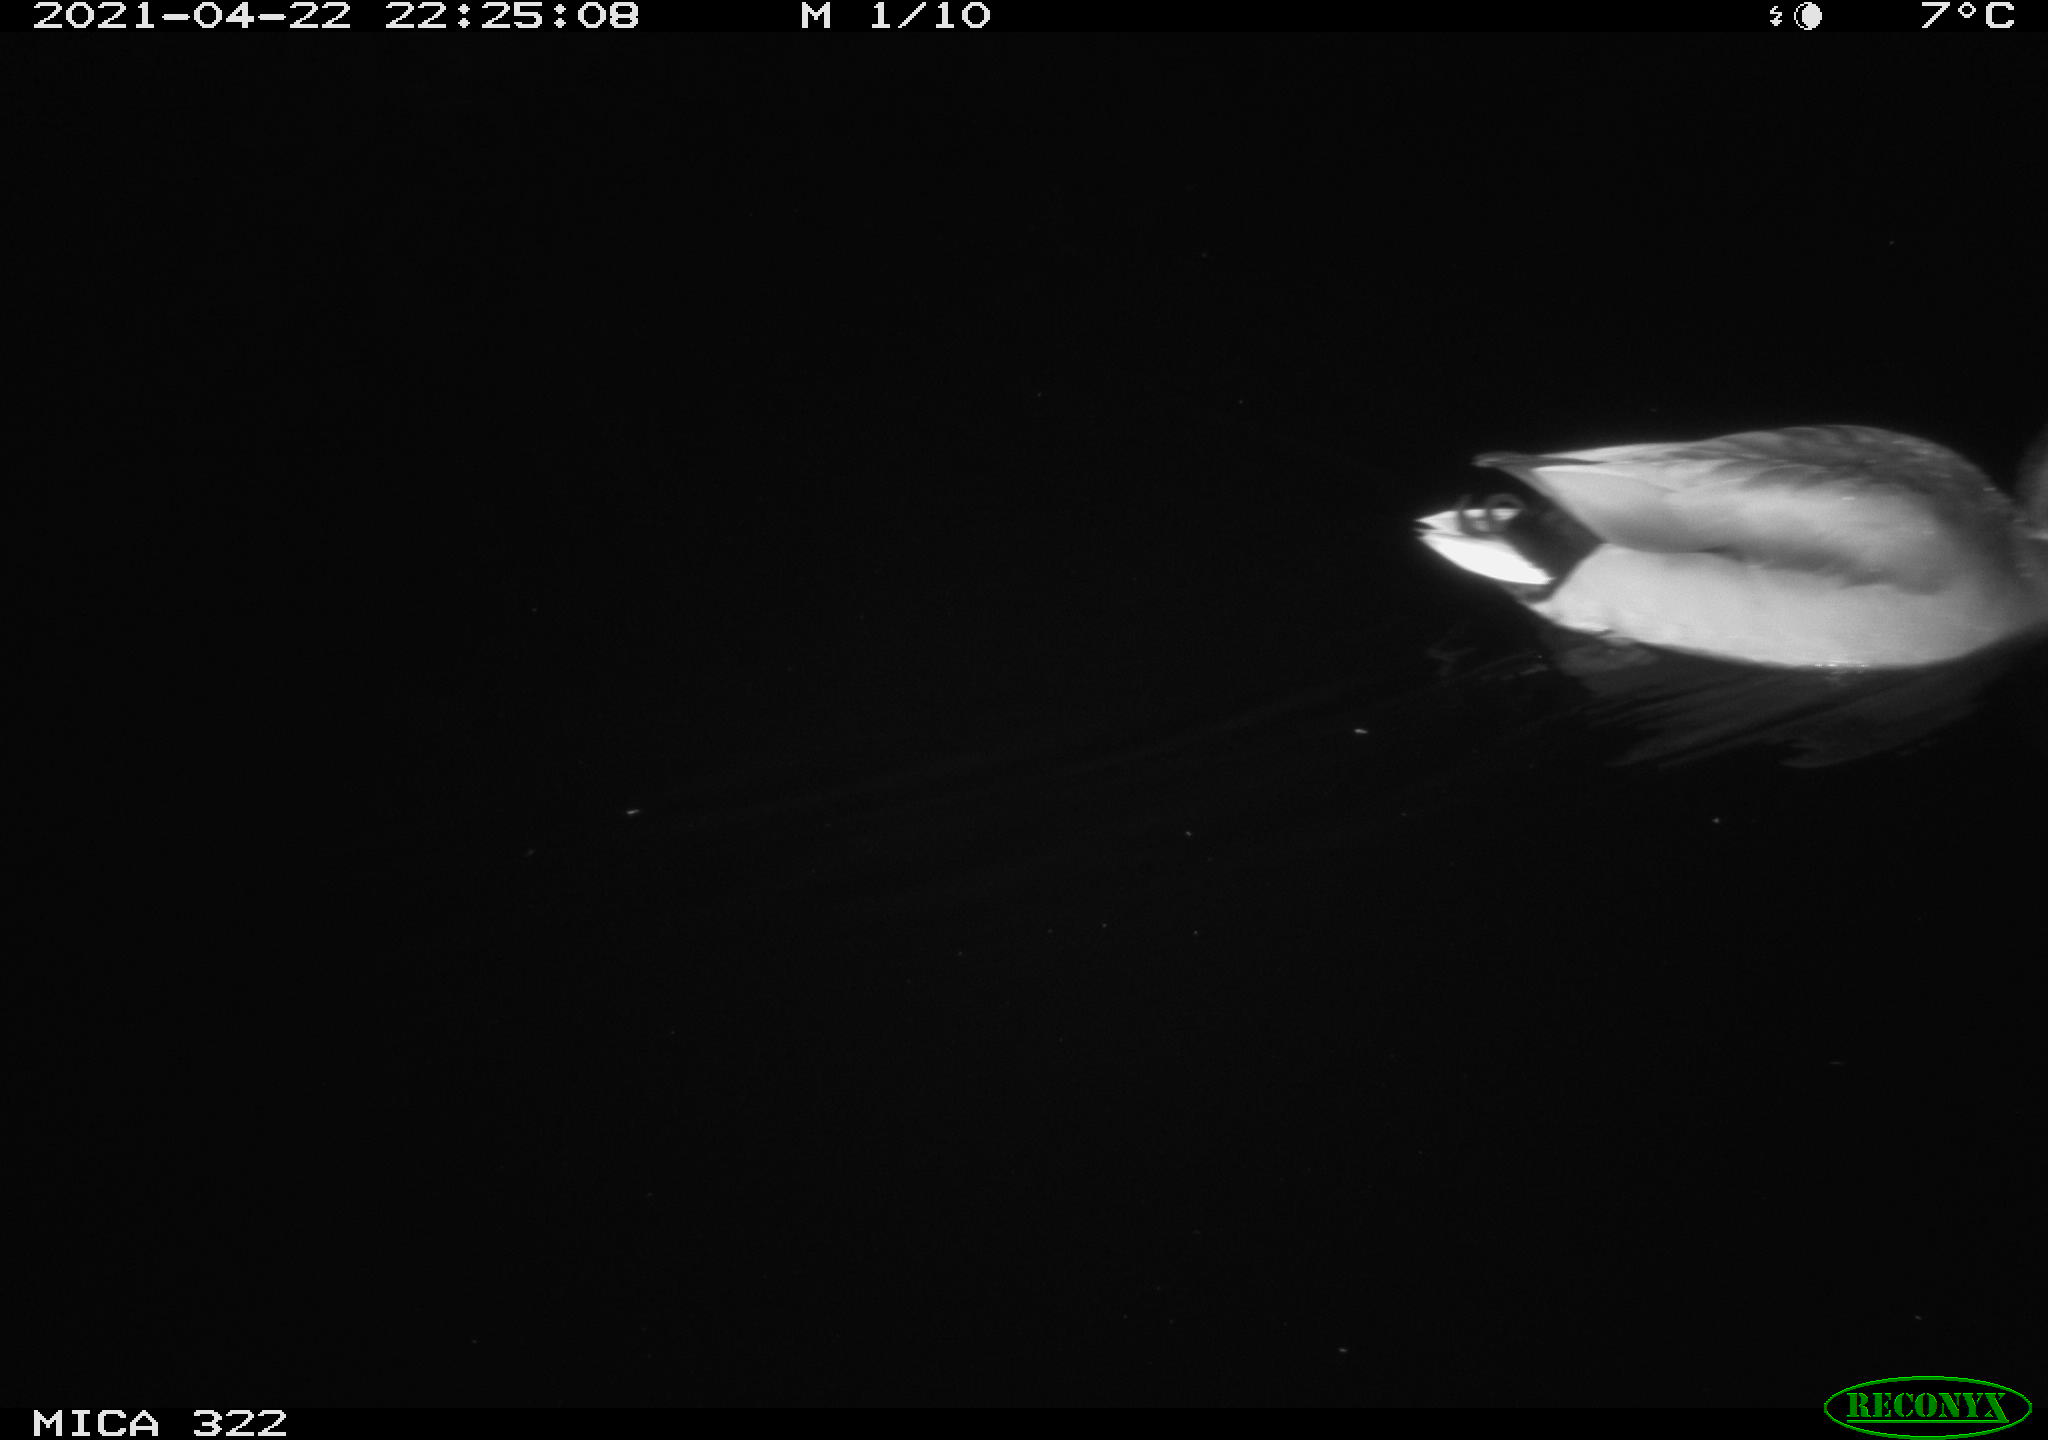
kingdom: Animalia
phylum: Chordata
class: Aves
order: Anseriformes
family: Anatidae
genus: Anas
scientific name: Anas platyrhynchos
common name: Mallard
